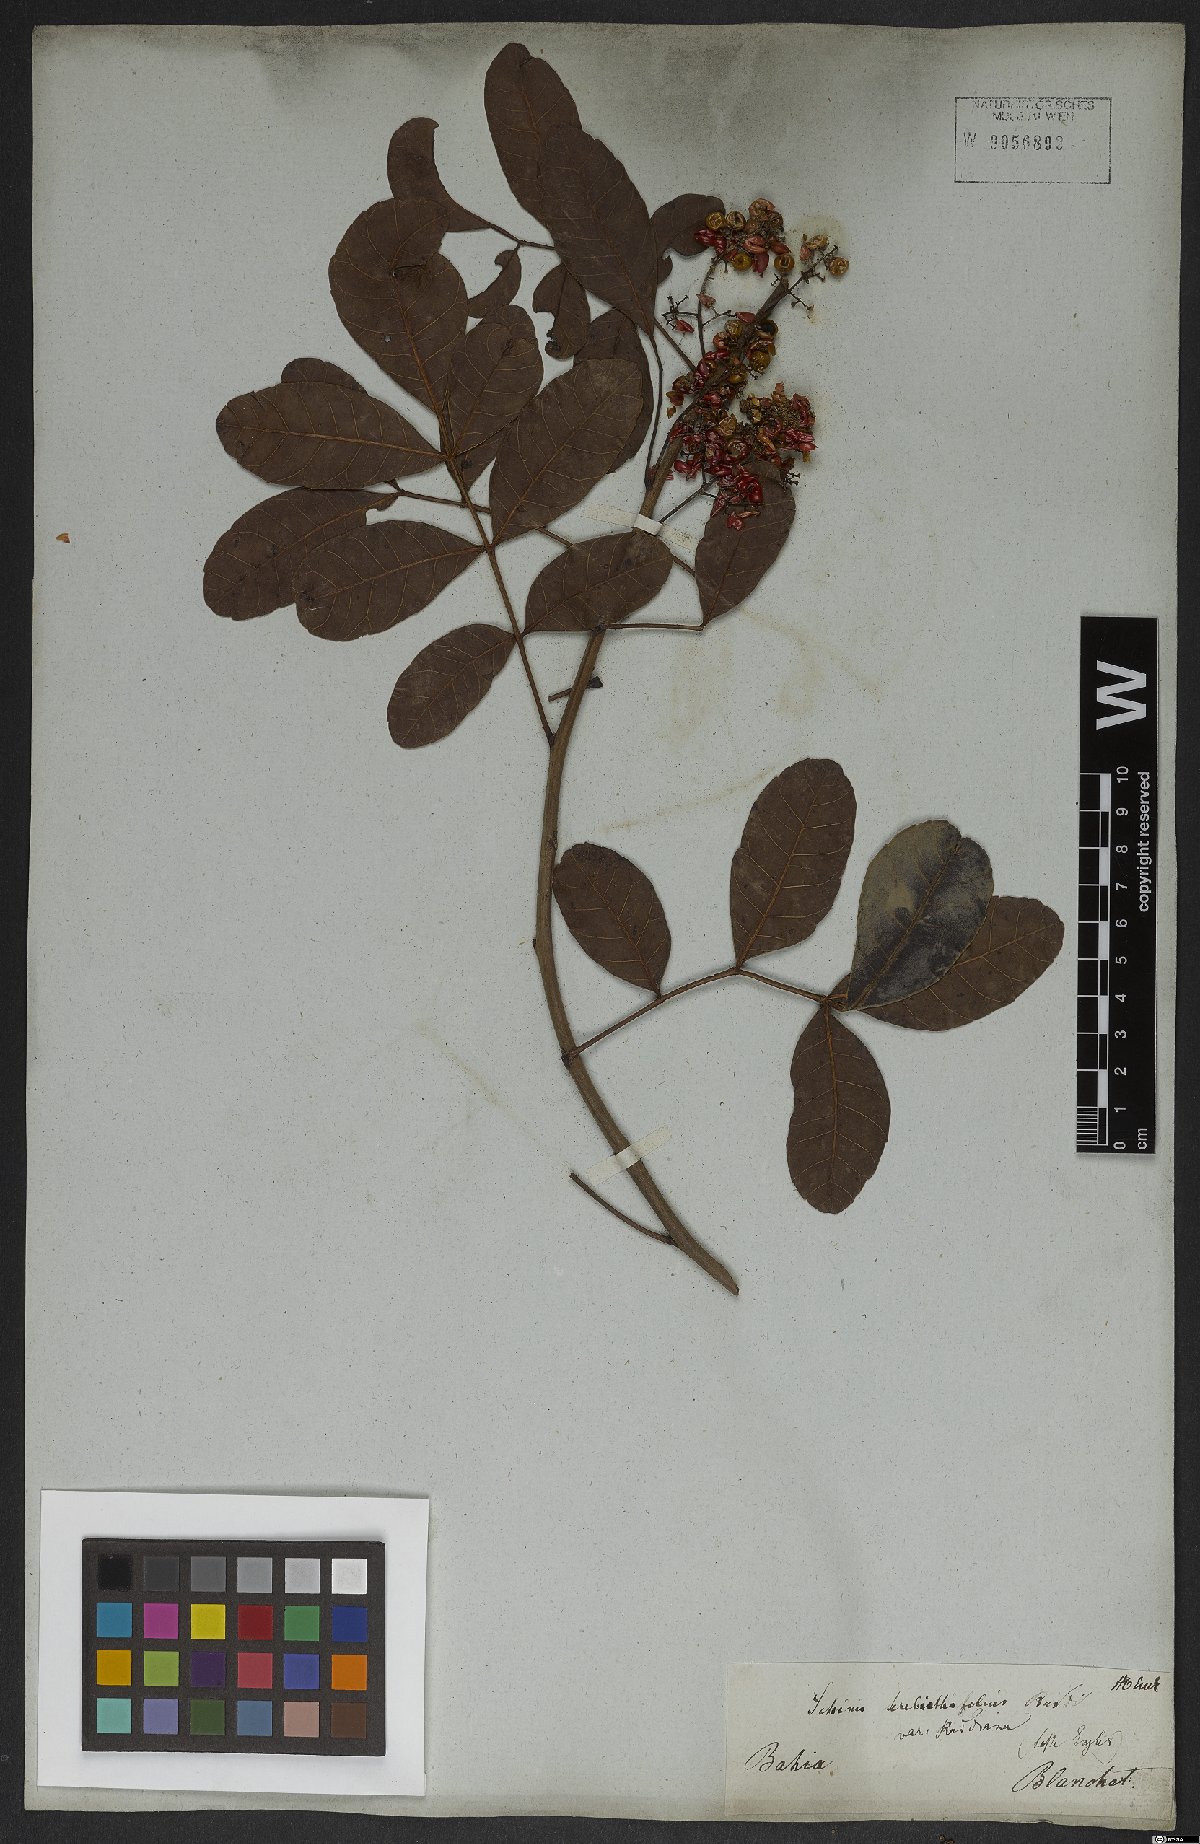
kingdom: Plantae
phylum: Tracheophyta
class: Magnoliopsida
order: Gentianales
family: Apocynaceae
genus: Tabernaemontana
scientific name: Tabernaemontana laeta
